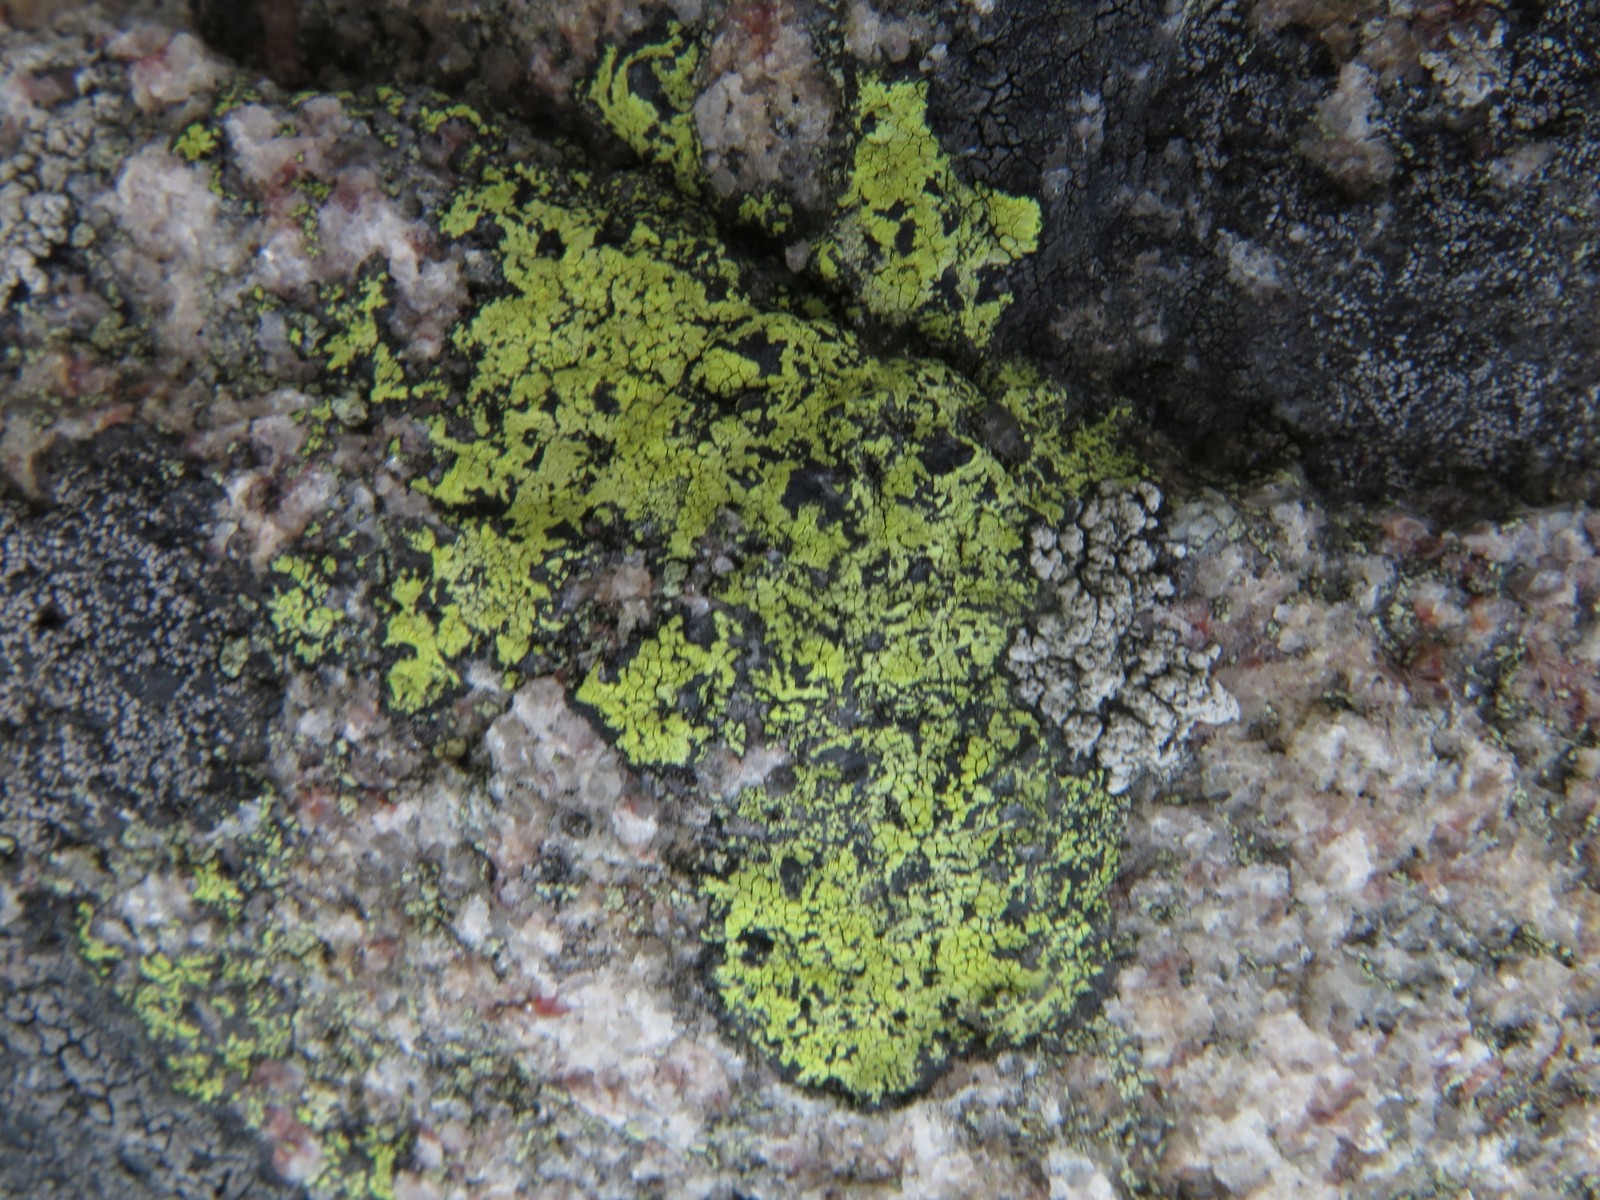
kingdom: Fungi
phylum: Ascomycota
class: Lecanoromycetes
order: Rhizocarpales
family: Rhizocarpaceae
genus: Rhizocarpon
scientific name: Rhizocarpon geographicum
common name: gulgrøn landkortlav
